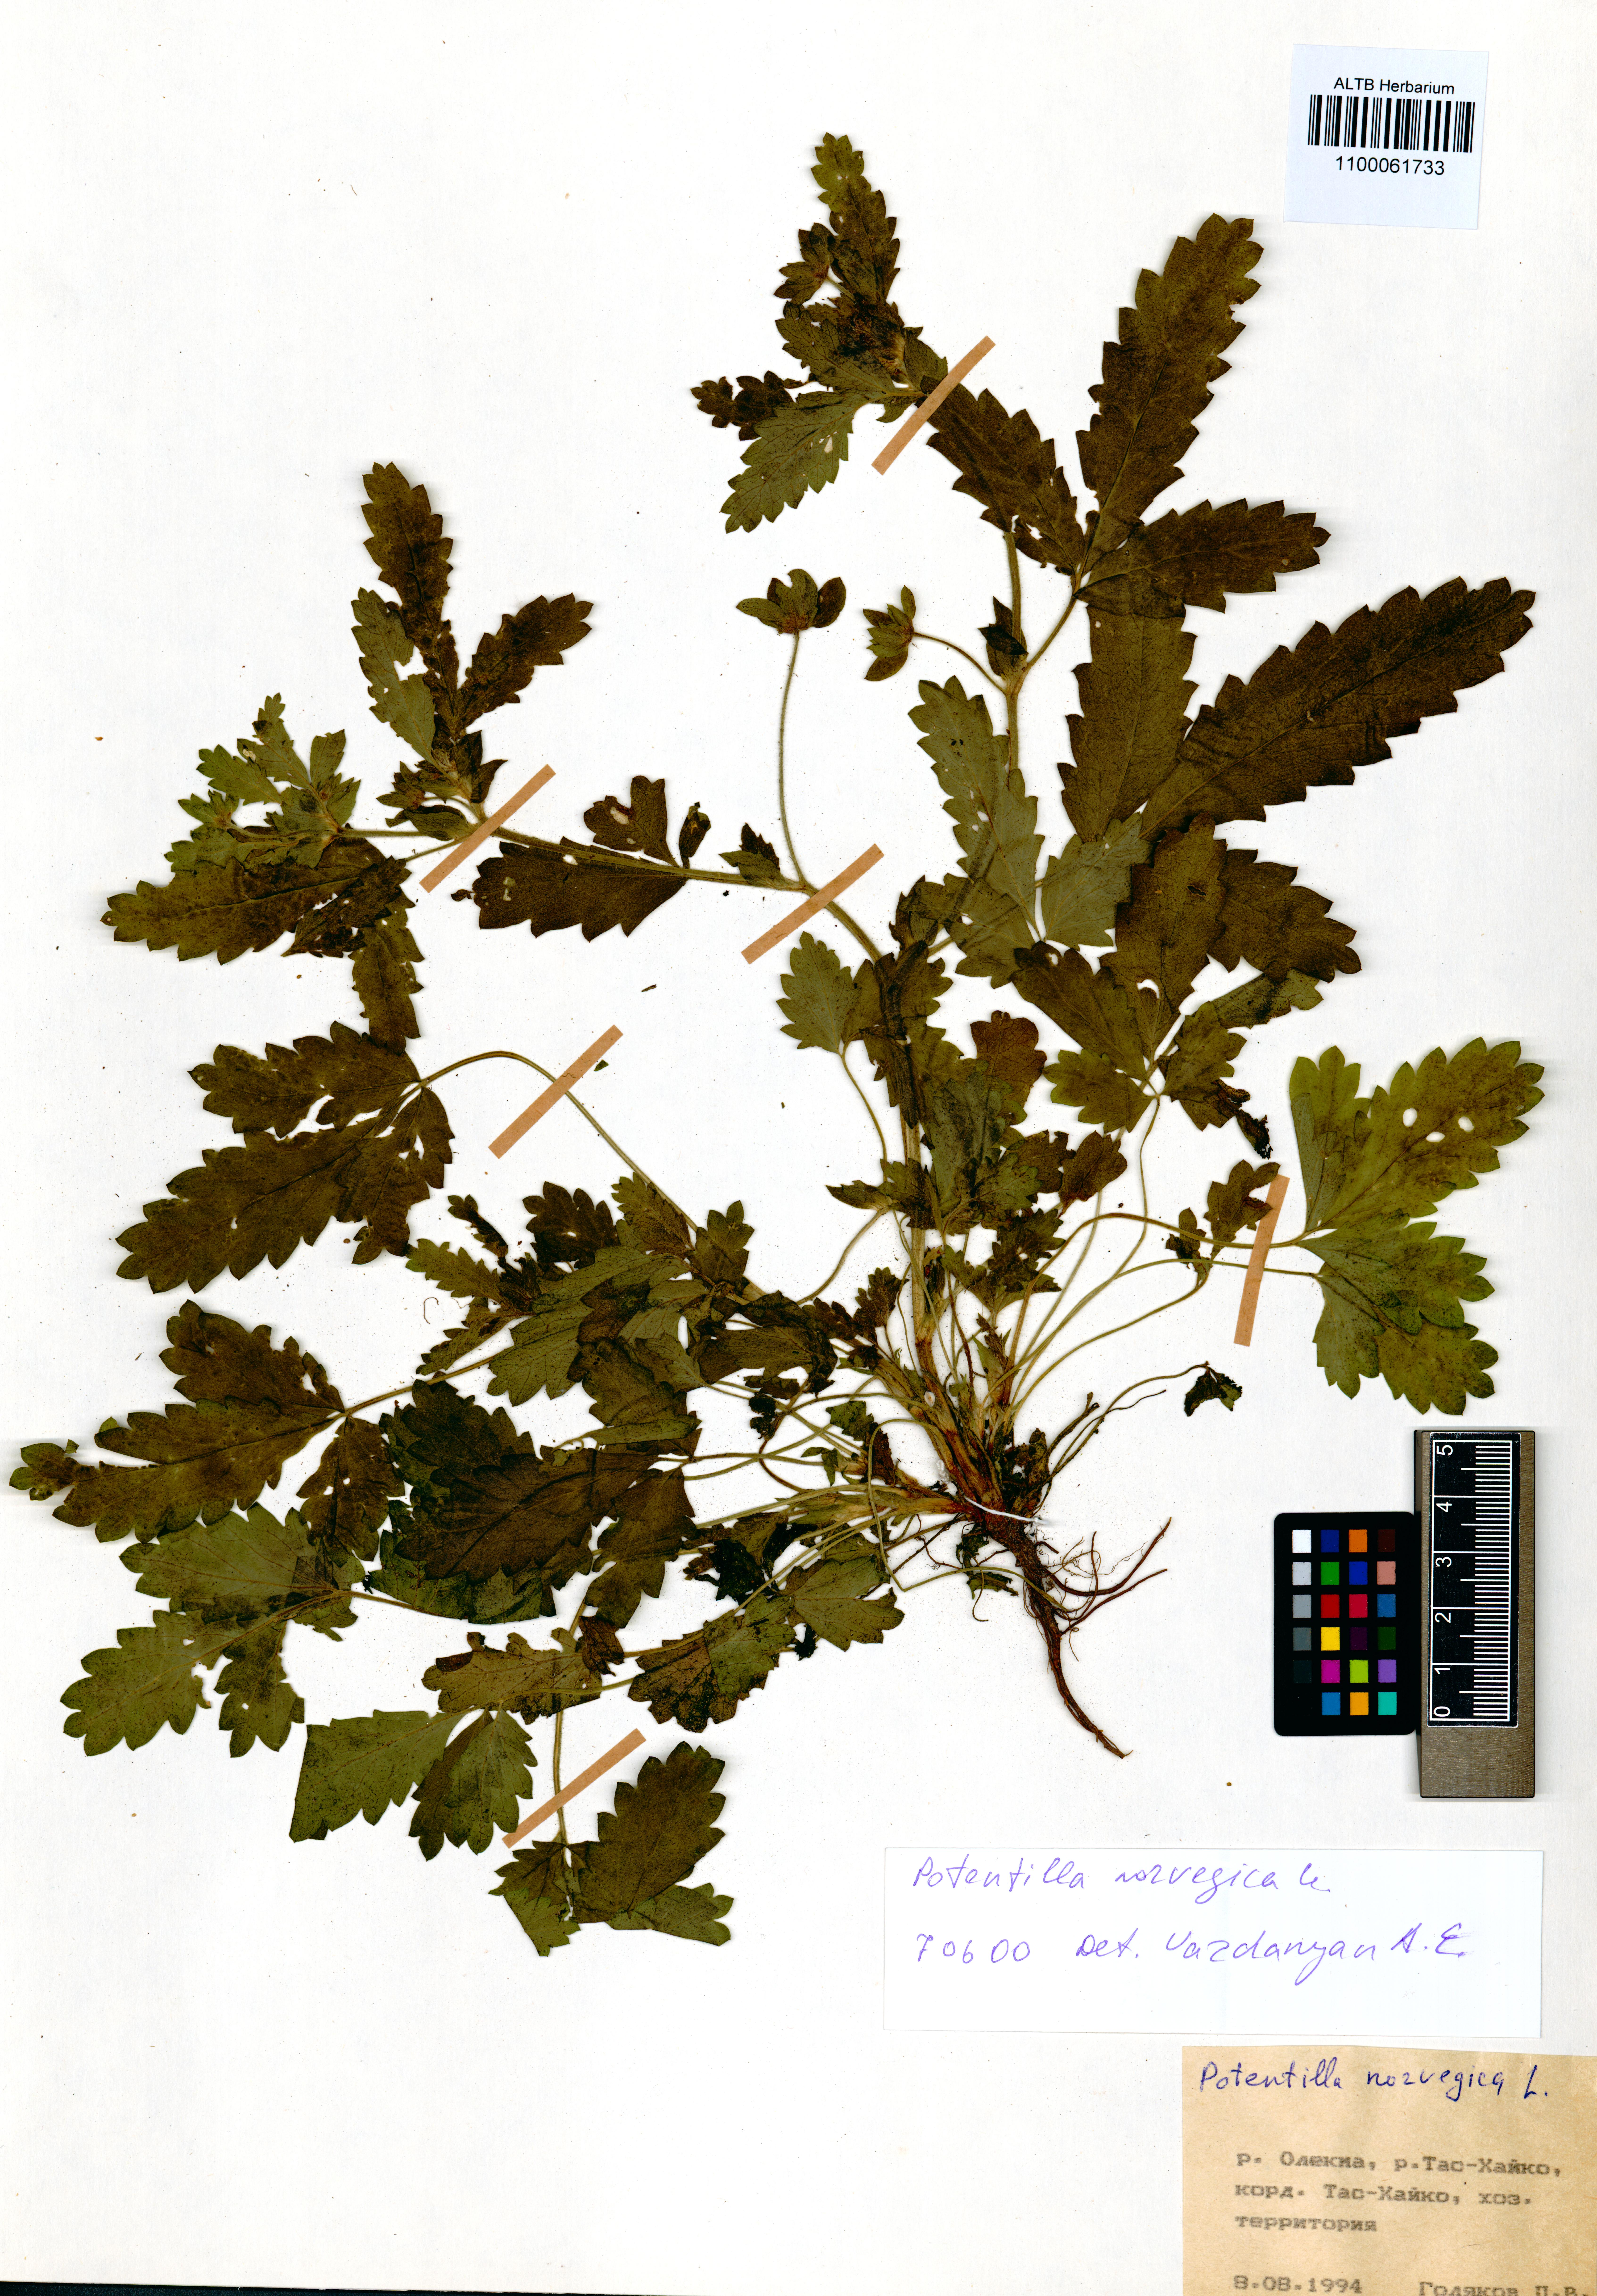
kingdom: Plantae
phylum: Tracheophyta
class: Magnoliopsida
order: Rosales
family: Rosaceae
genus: Potentilla
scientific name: Potentilla norvegica
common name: Ternate-leaved cinquefoil
